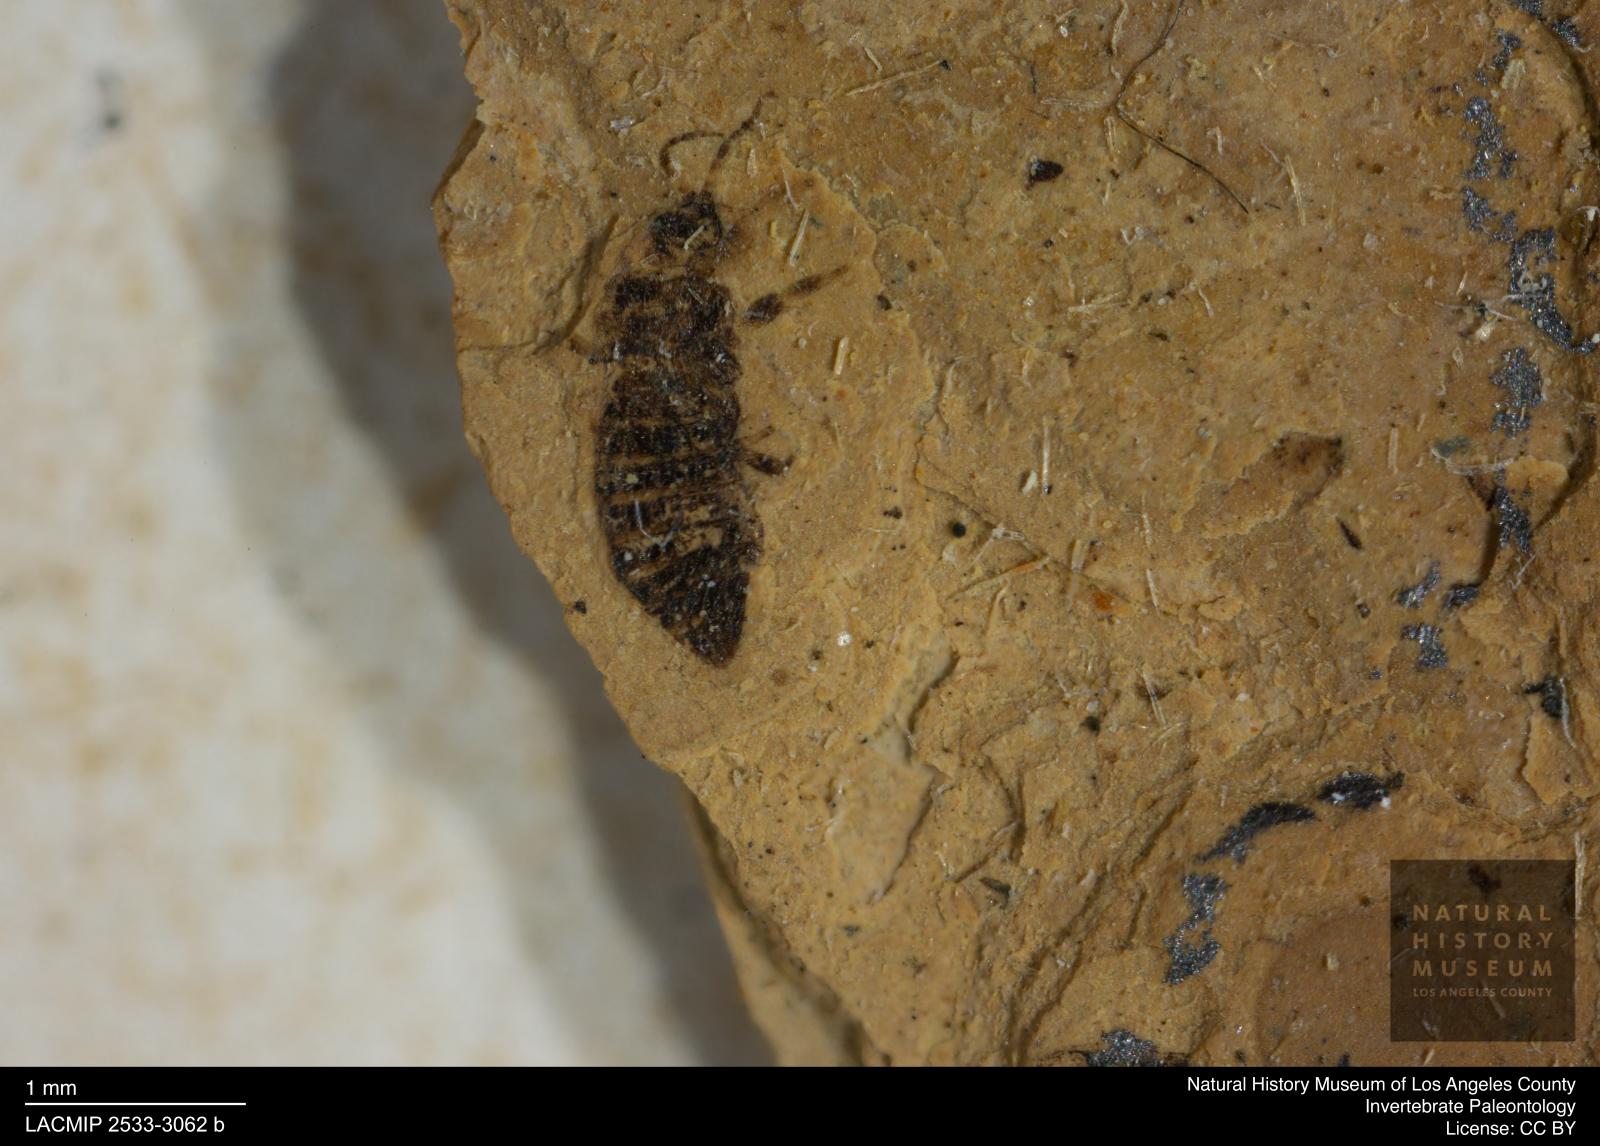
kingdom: Animalia
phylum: Arthropoda
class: Insecta
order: Thysanoptera
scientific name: Thysanoptera
